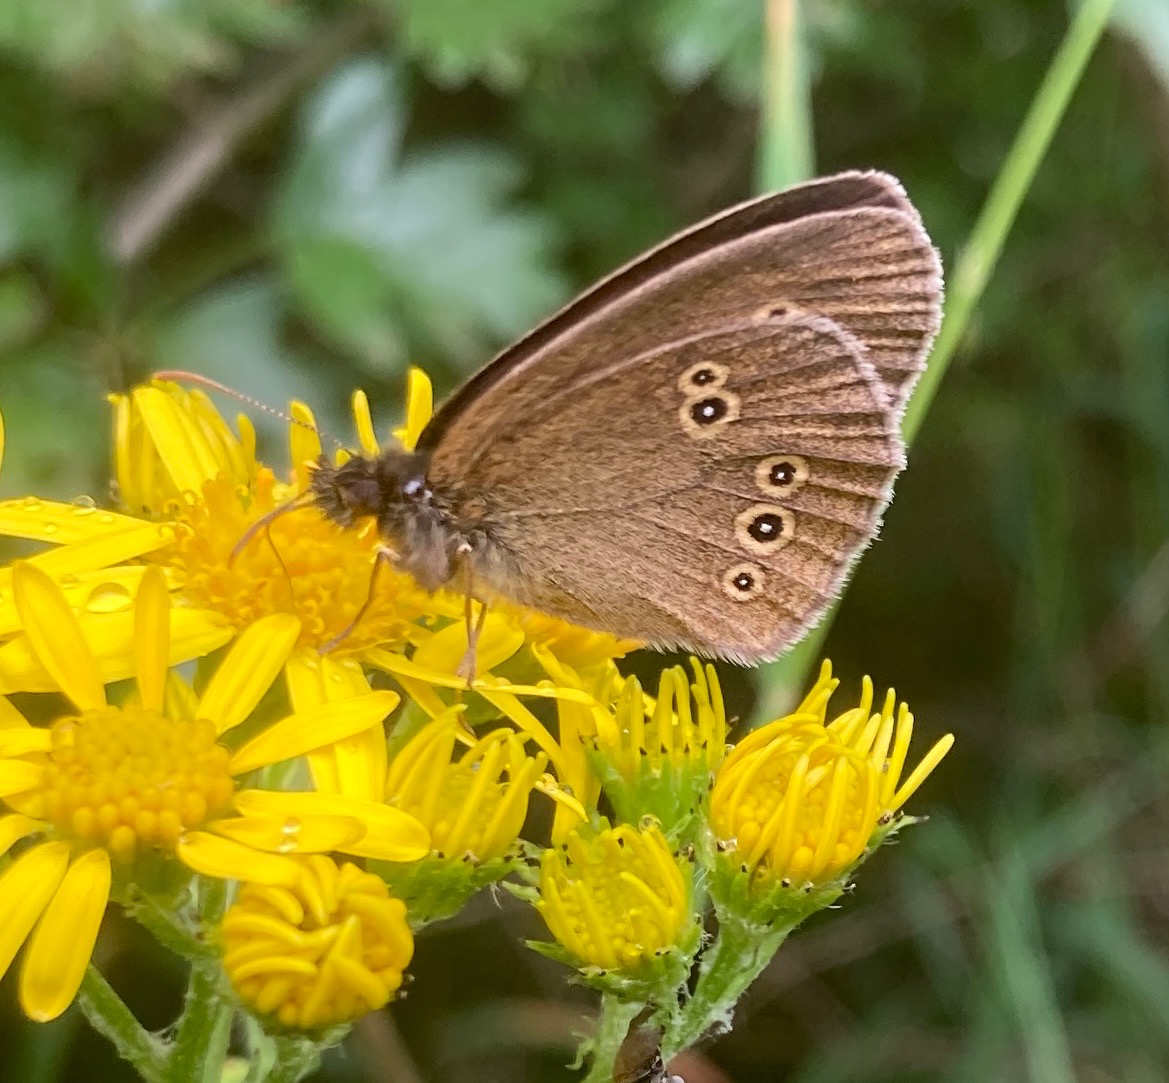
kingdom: Animalia
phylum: Arthropoda
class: Insecta
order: Lepidoptera
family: Nymphalidae
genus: Aphantopus
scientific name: Aphantopus hyperantus
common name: Engrandøje
